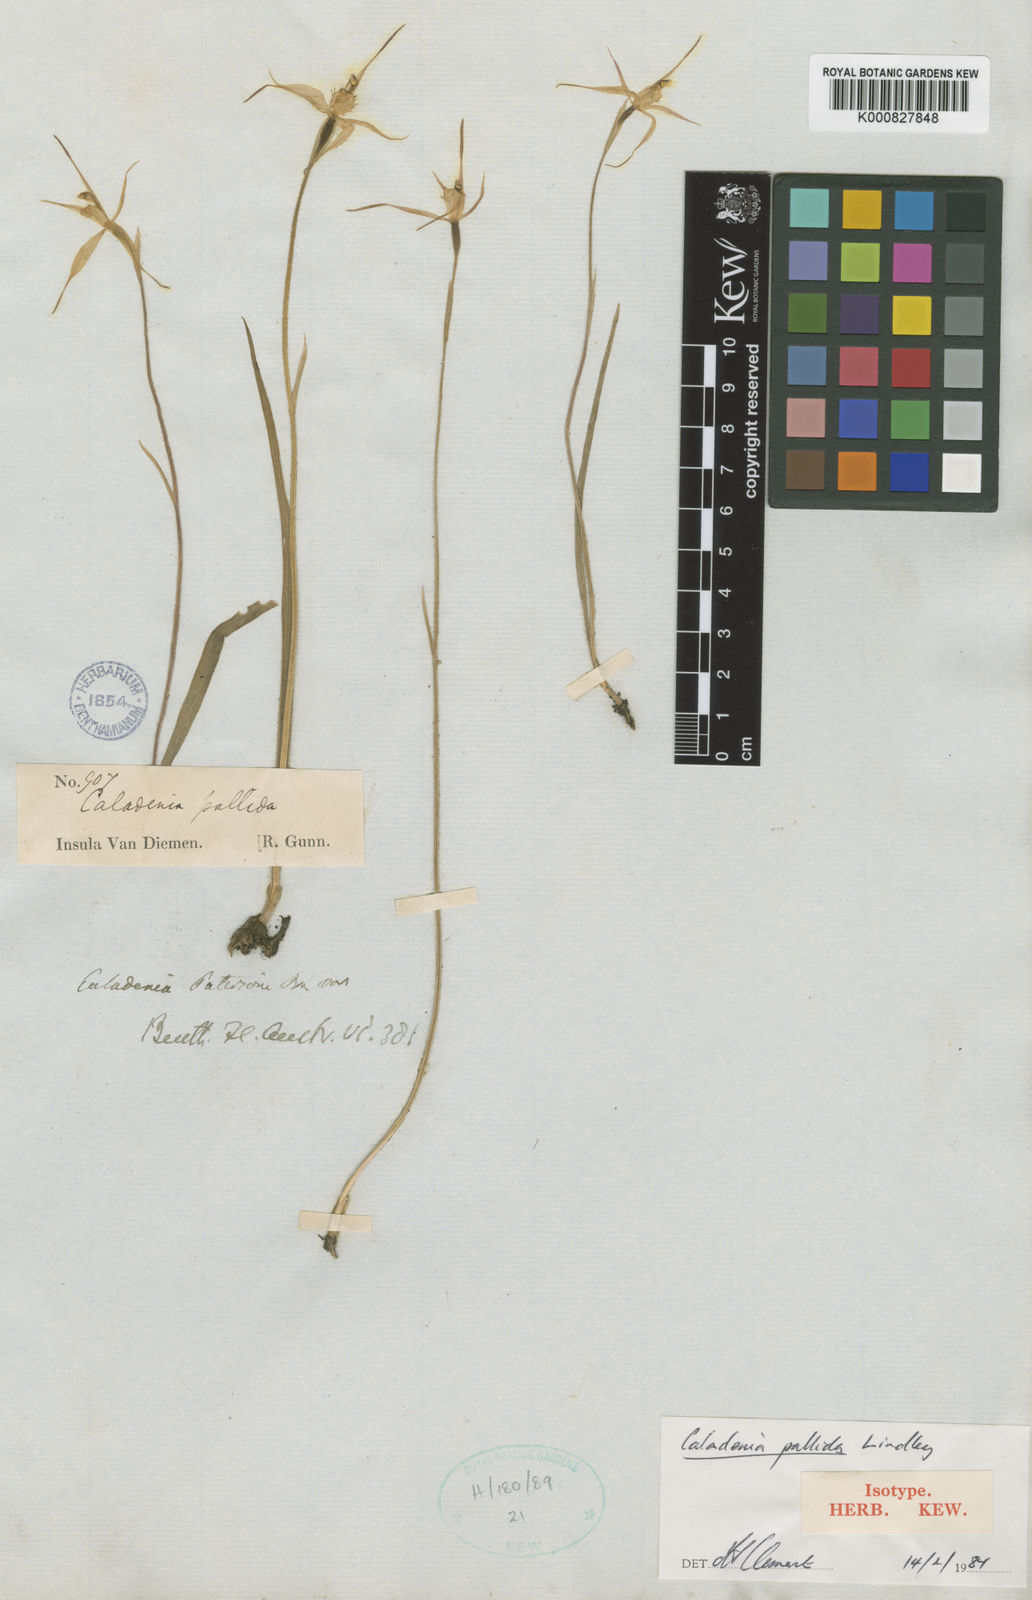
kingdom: Plantae
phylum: Tracheophyta
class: Liliopsida
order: Asparagales
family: Orchidaceae
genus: Caladenia
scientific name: Caladenia pallida
